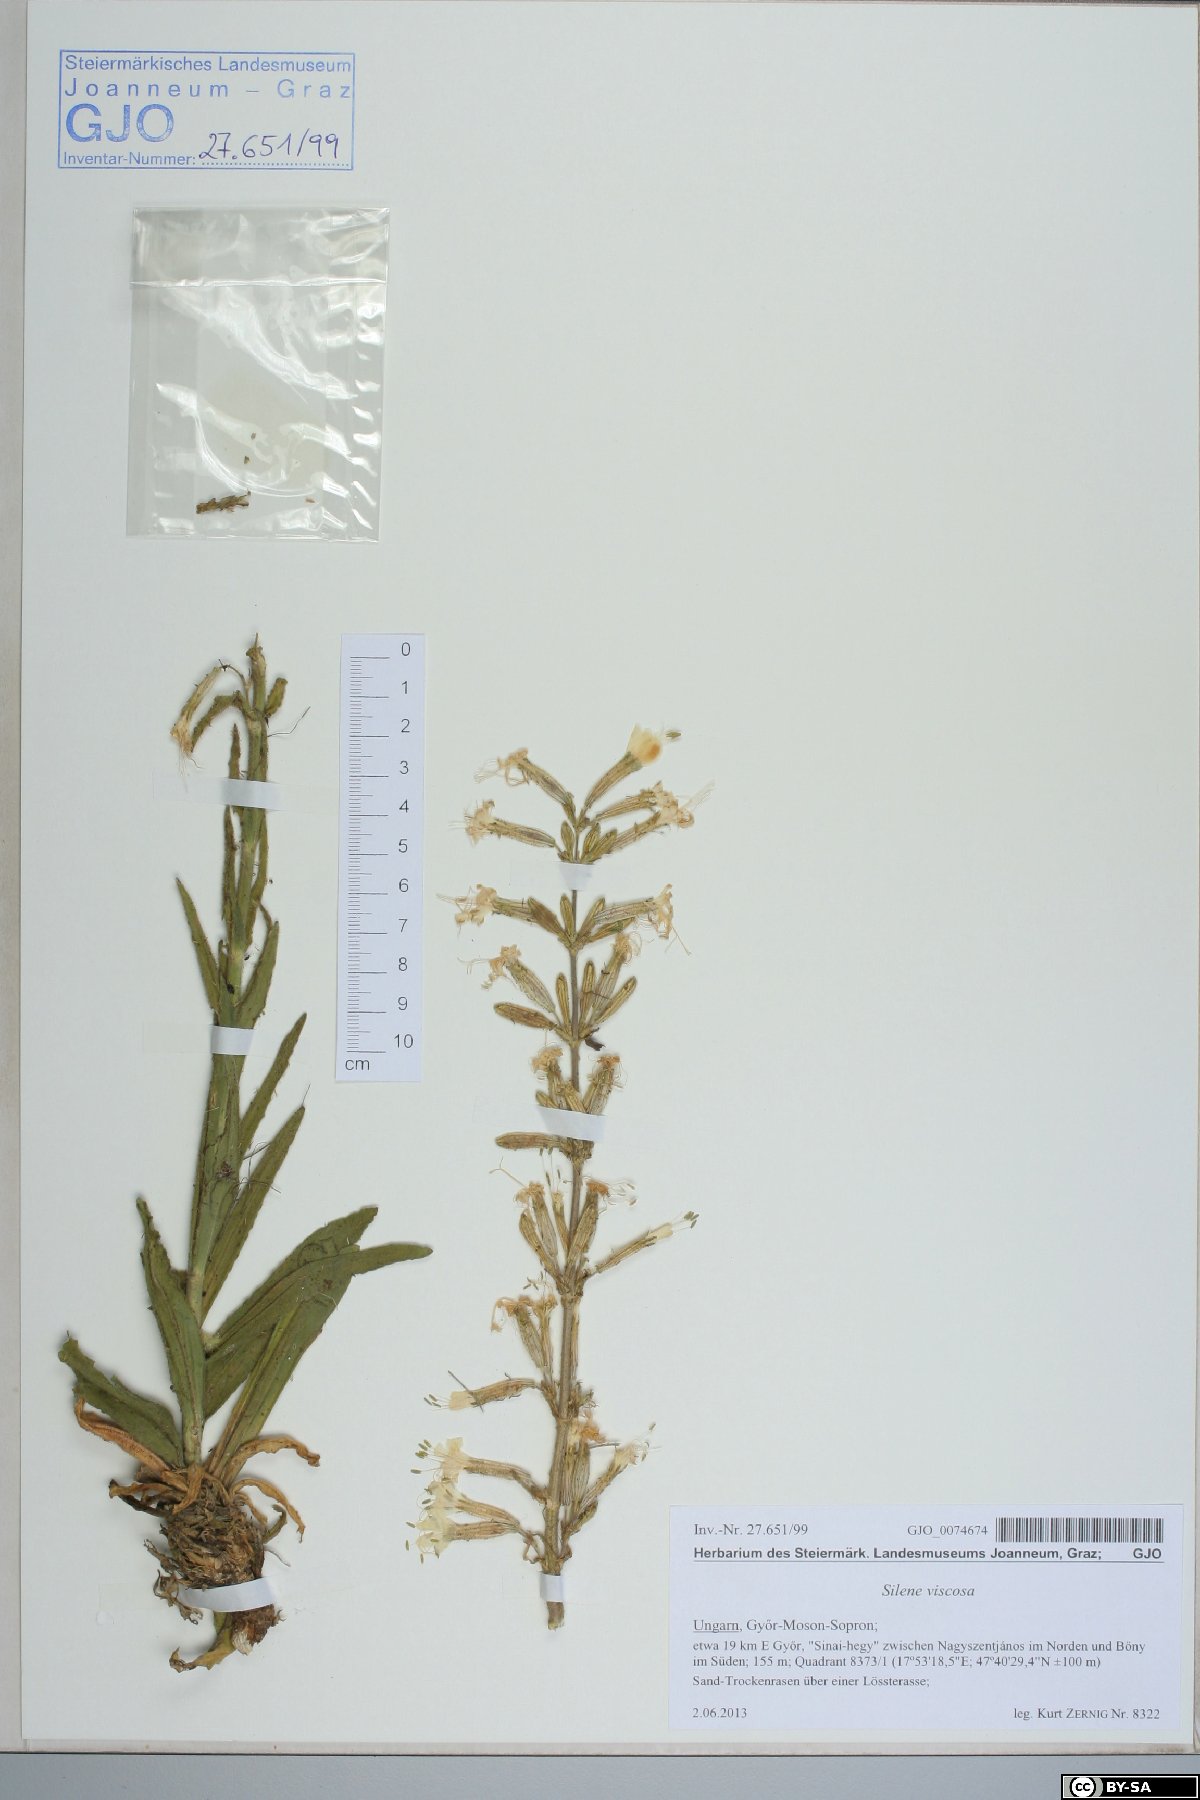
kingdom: Plantae
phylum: Tracheophyta
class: Magnoliopsida
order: Caryophyllales
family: Caryophyllaceae
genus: Silene
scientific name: Silene viscosa
